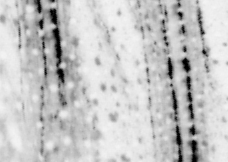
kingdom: Animalia
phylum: Chordata
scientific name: Chordata
